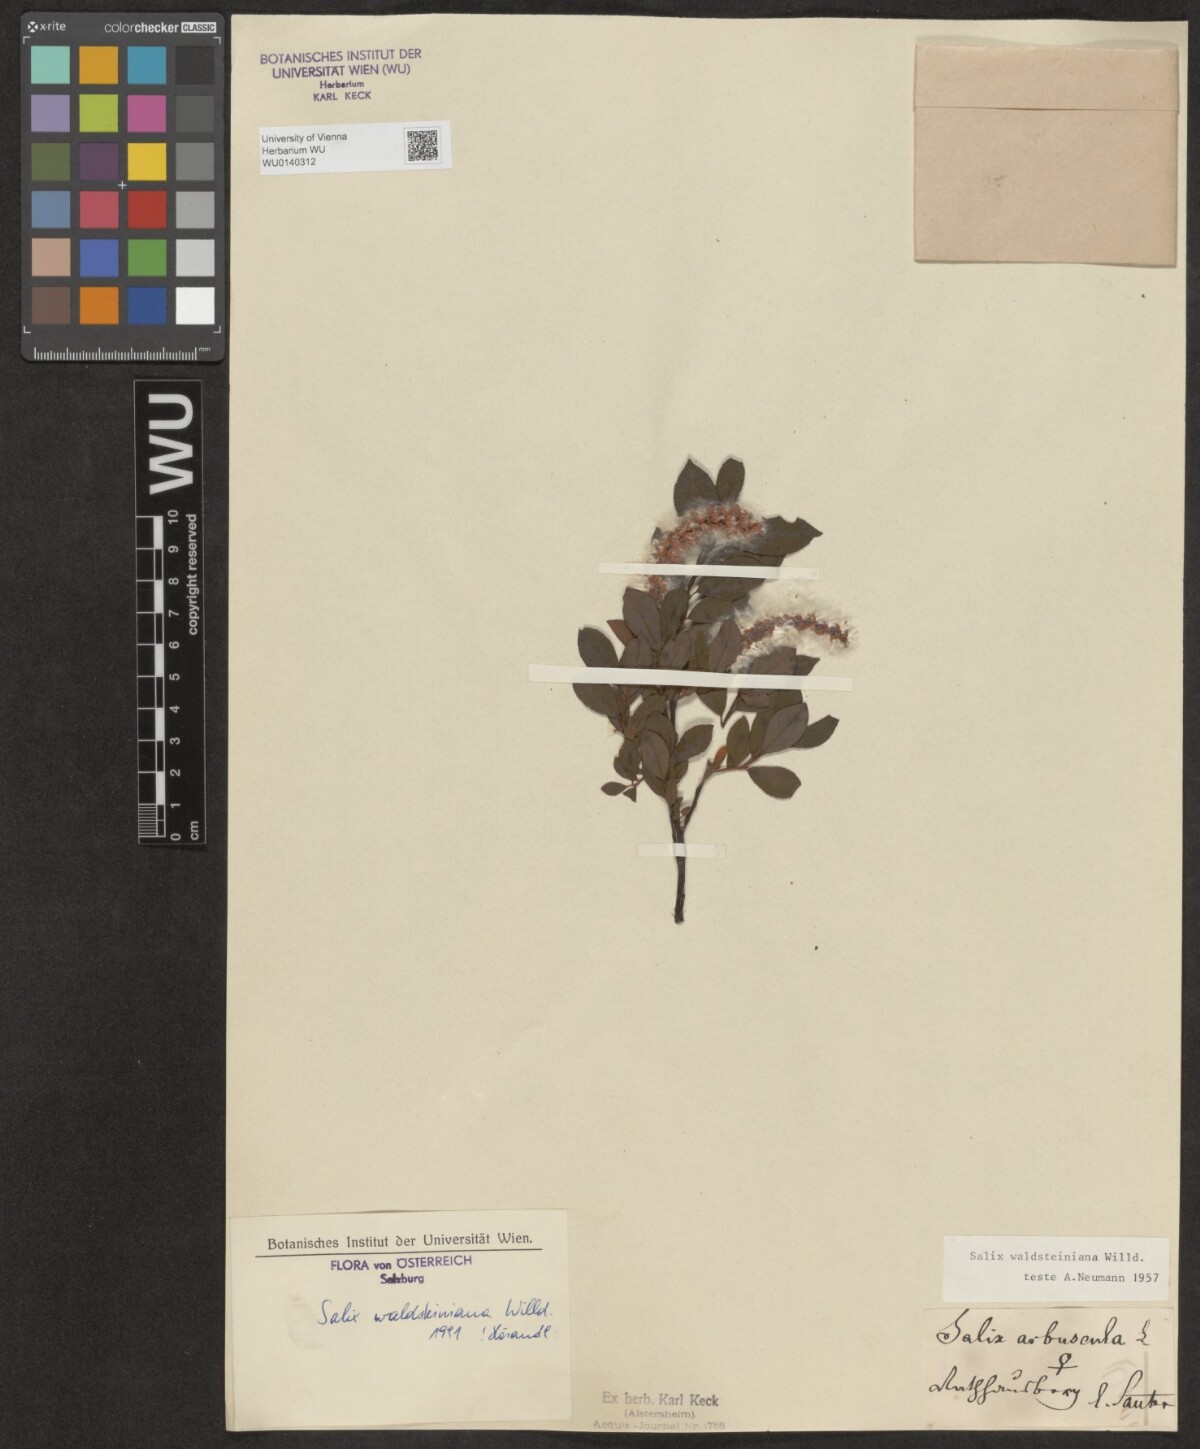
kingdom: Plantae
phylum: Tracheophyta
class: Magnoliopsida
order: Malpighiales
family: Salicaceae
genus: Salix
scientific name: Salix waldsteiniana
